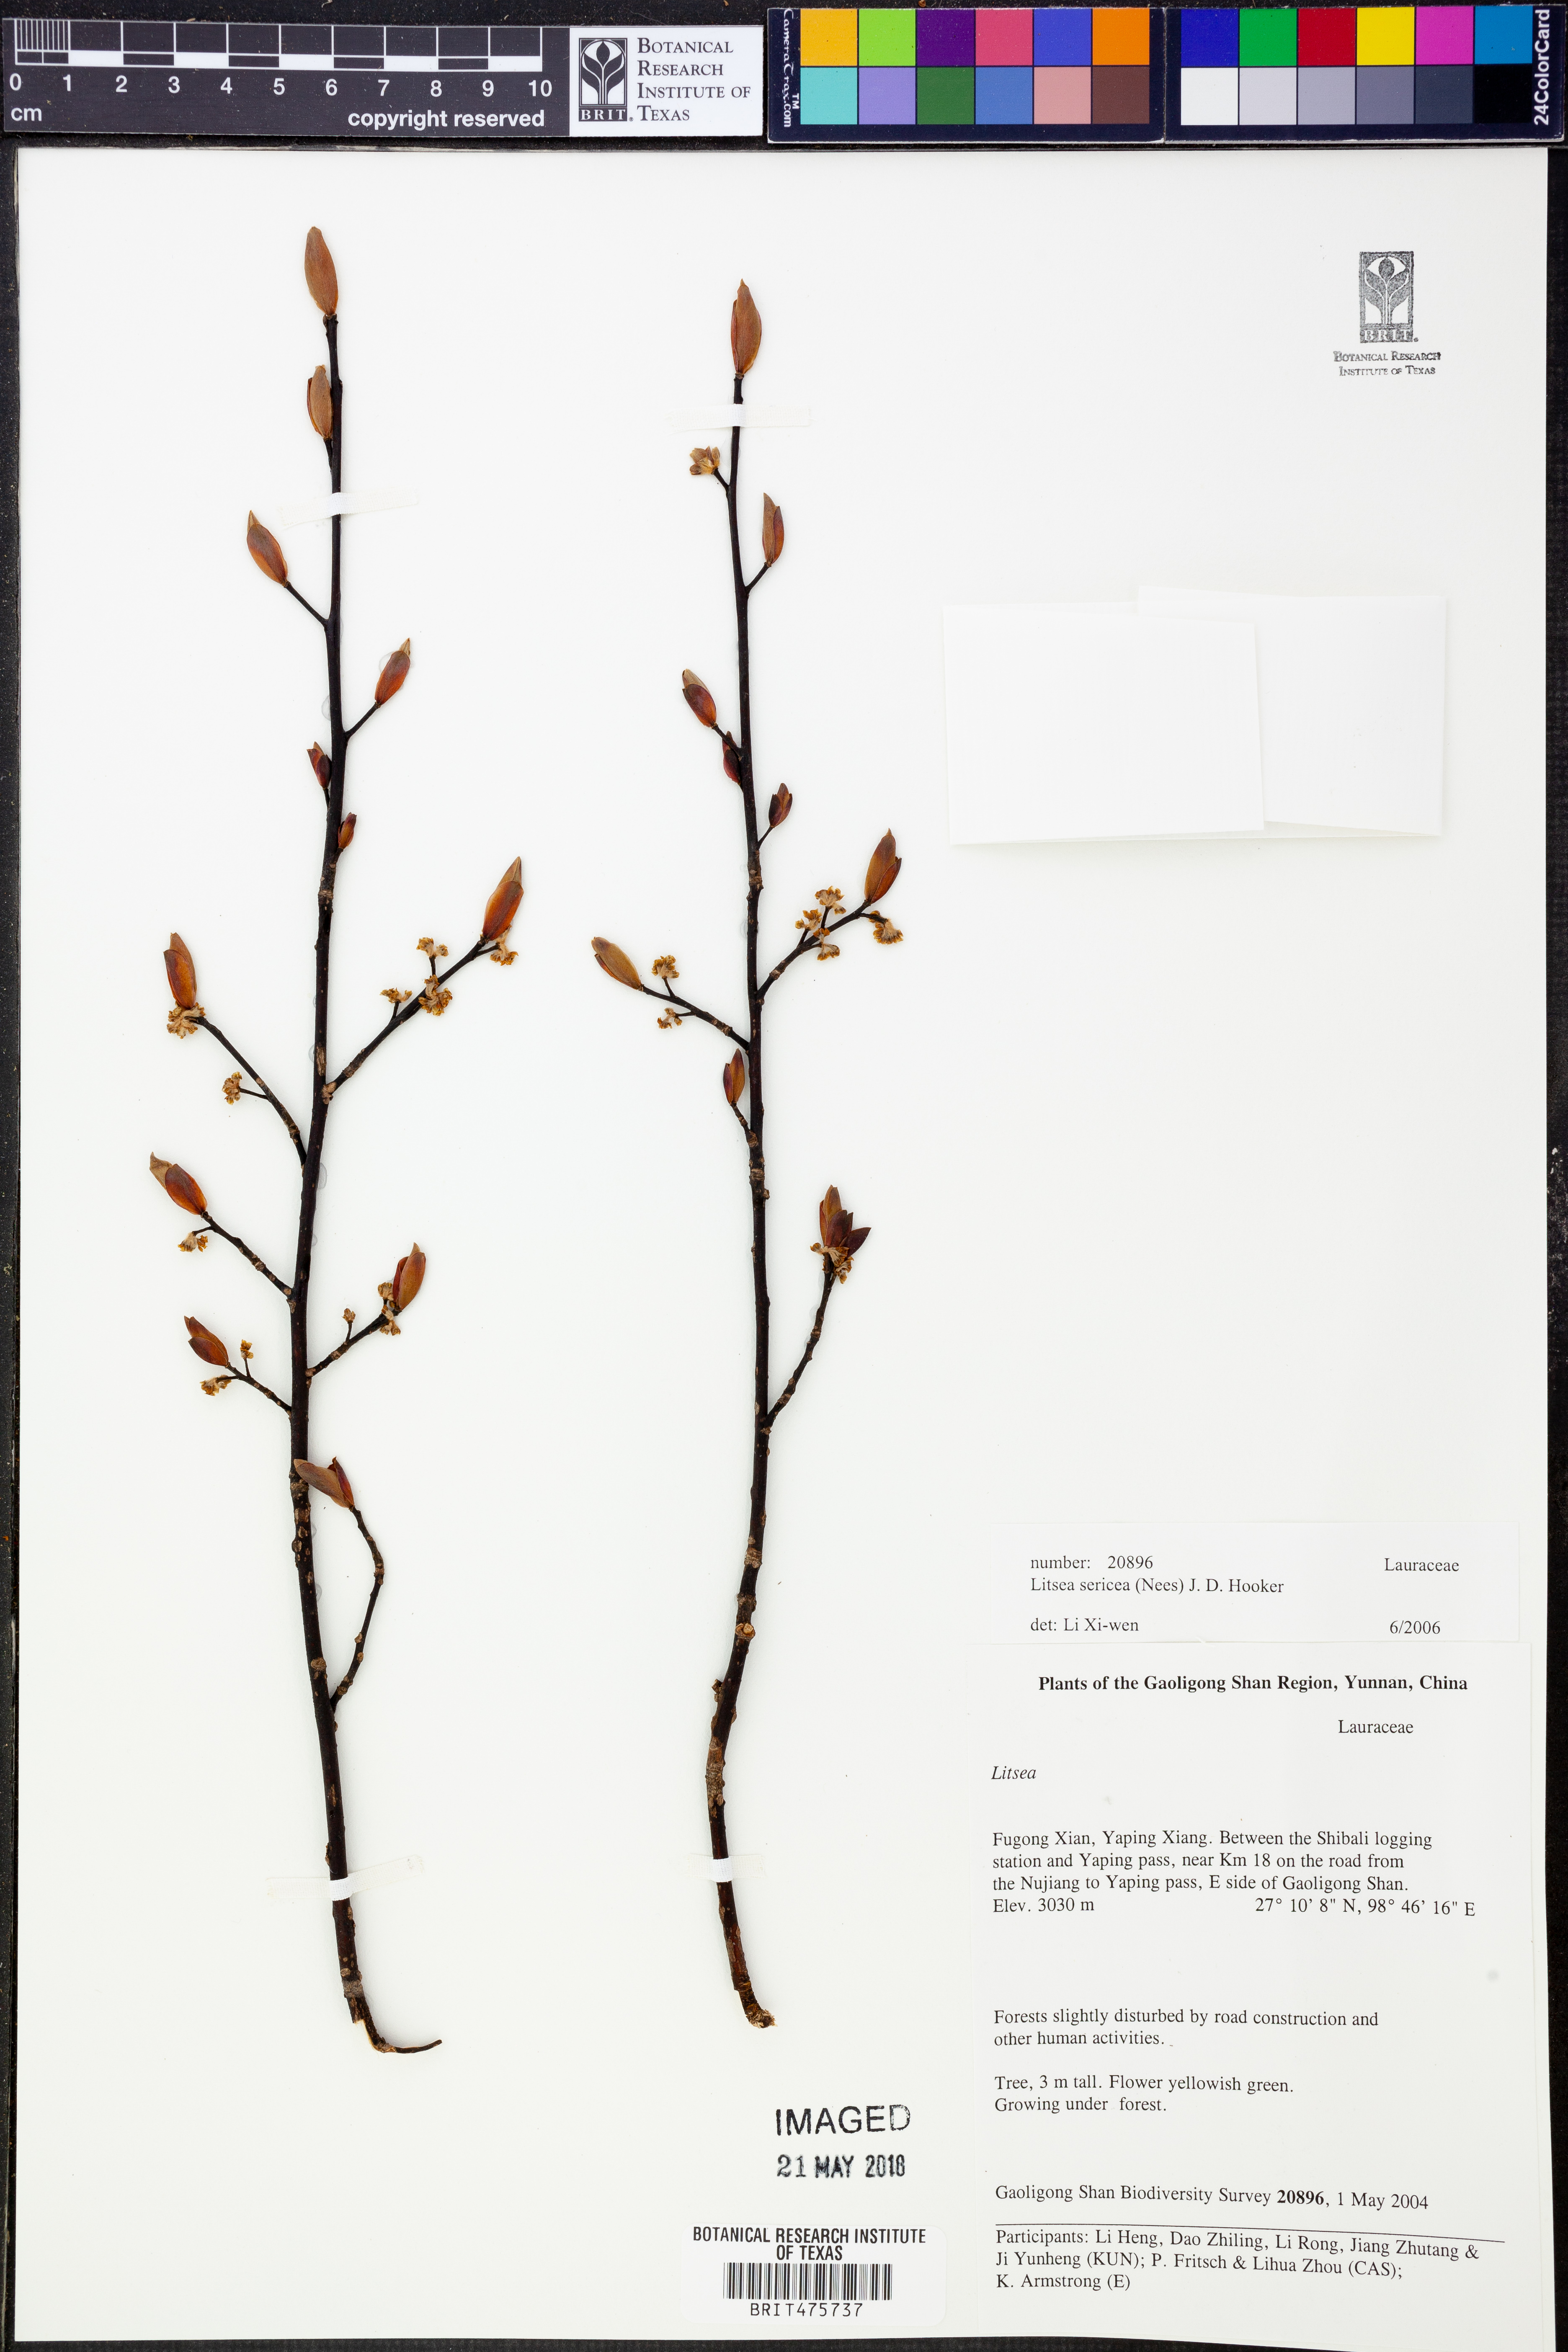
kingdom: Plantae
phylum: Tracheophyta
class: Magnoliopsida
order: Laurales
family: Lauraceae
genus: Litsea
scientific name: Litsea sericea
